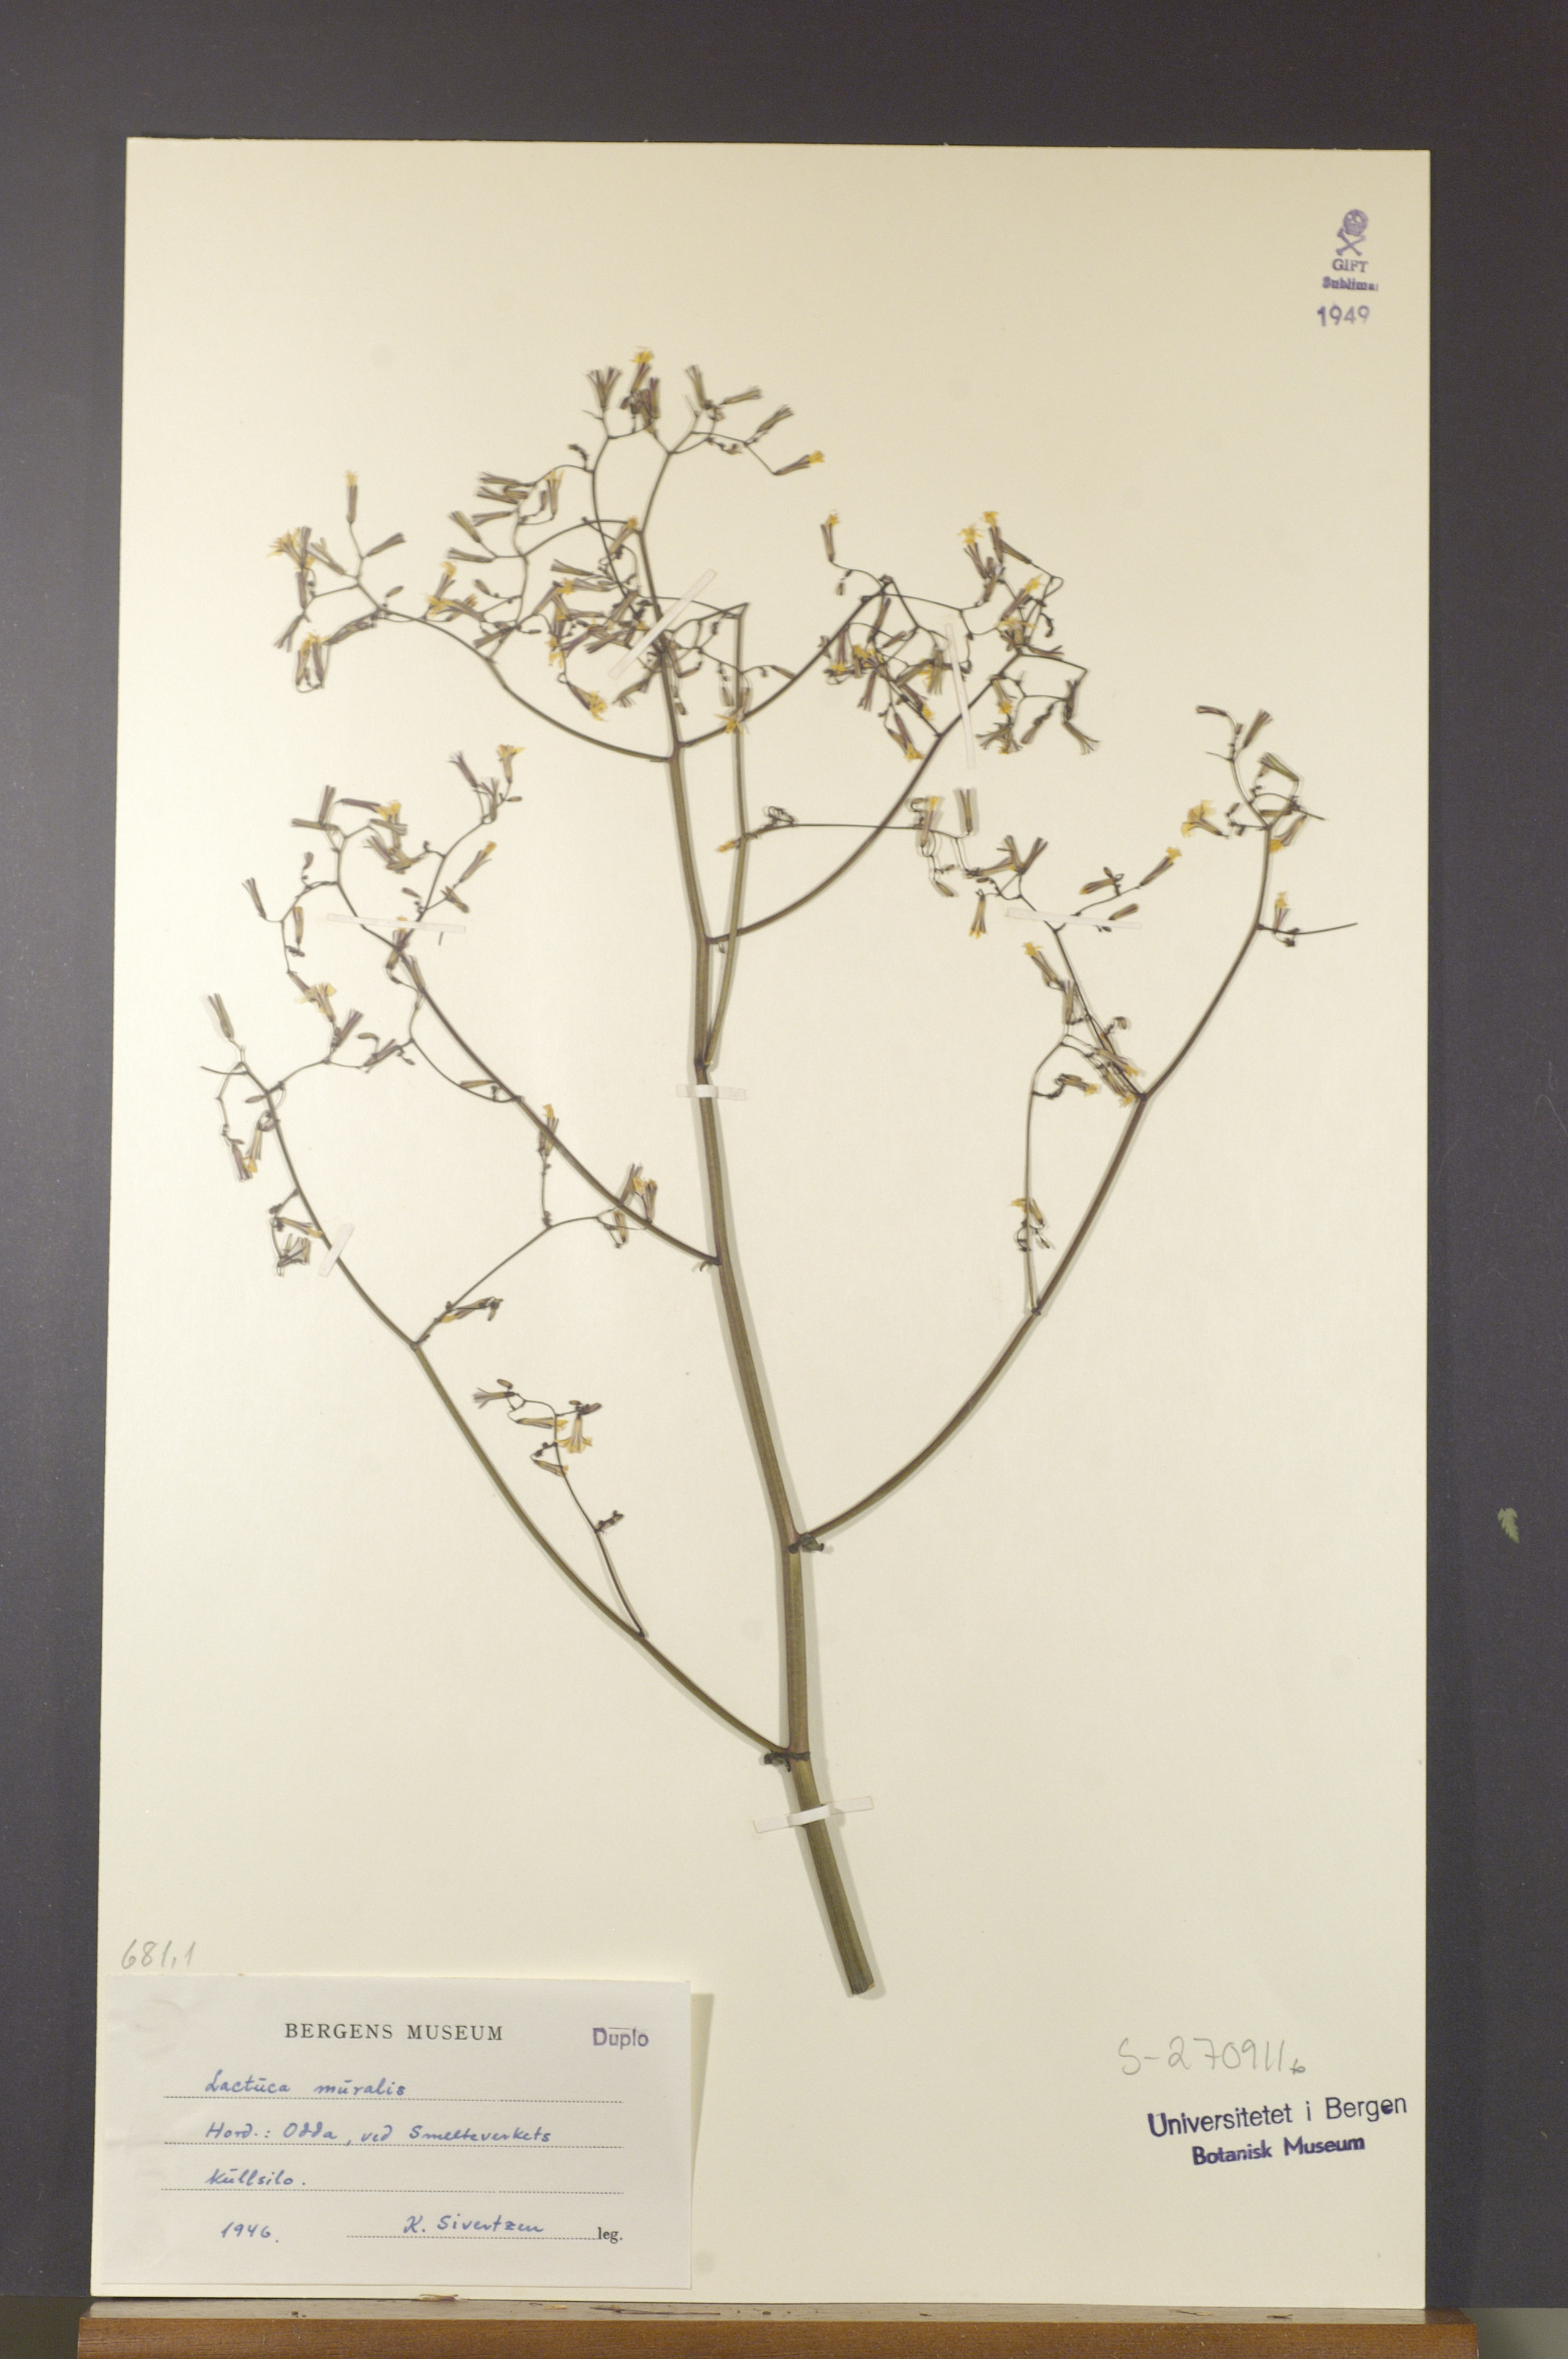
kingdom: Plantae
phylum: Tracheophyta
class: Magnoliopsida
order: Asterales
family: Asteraceae
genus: Mycelis
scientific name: Mycelis muralis
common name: Wall lettuce
